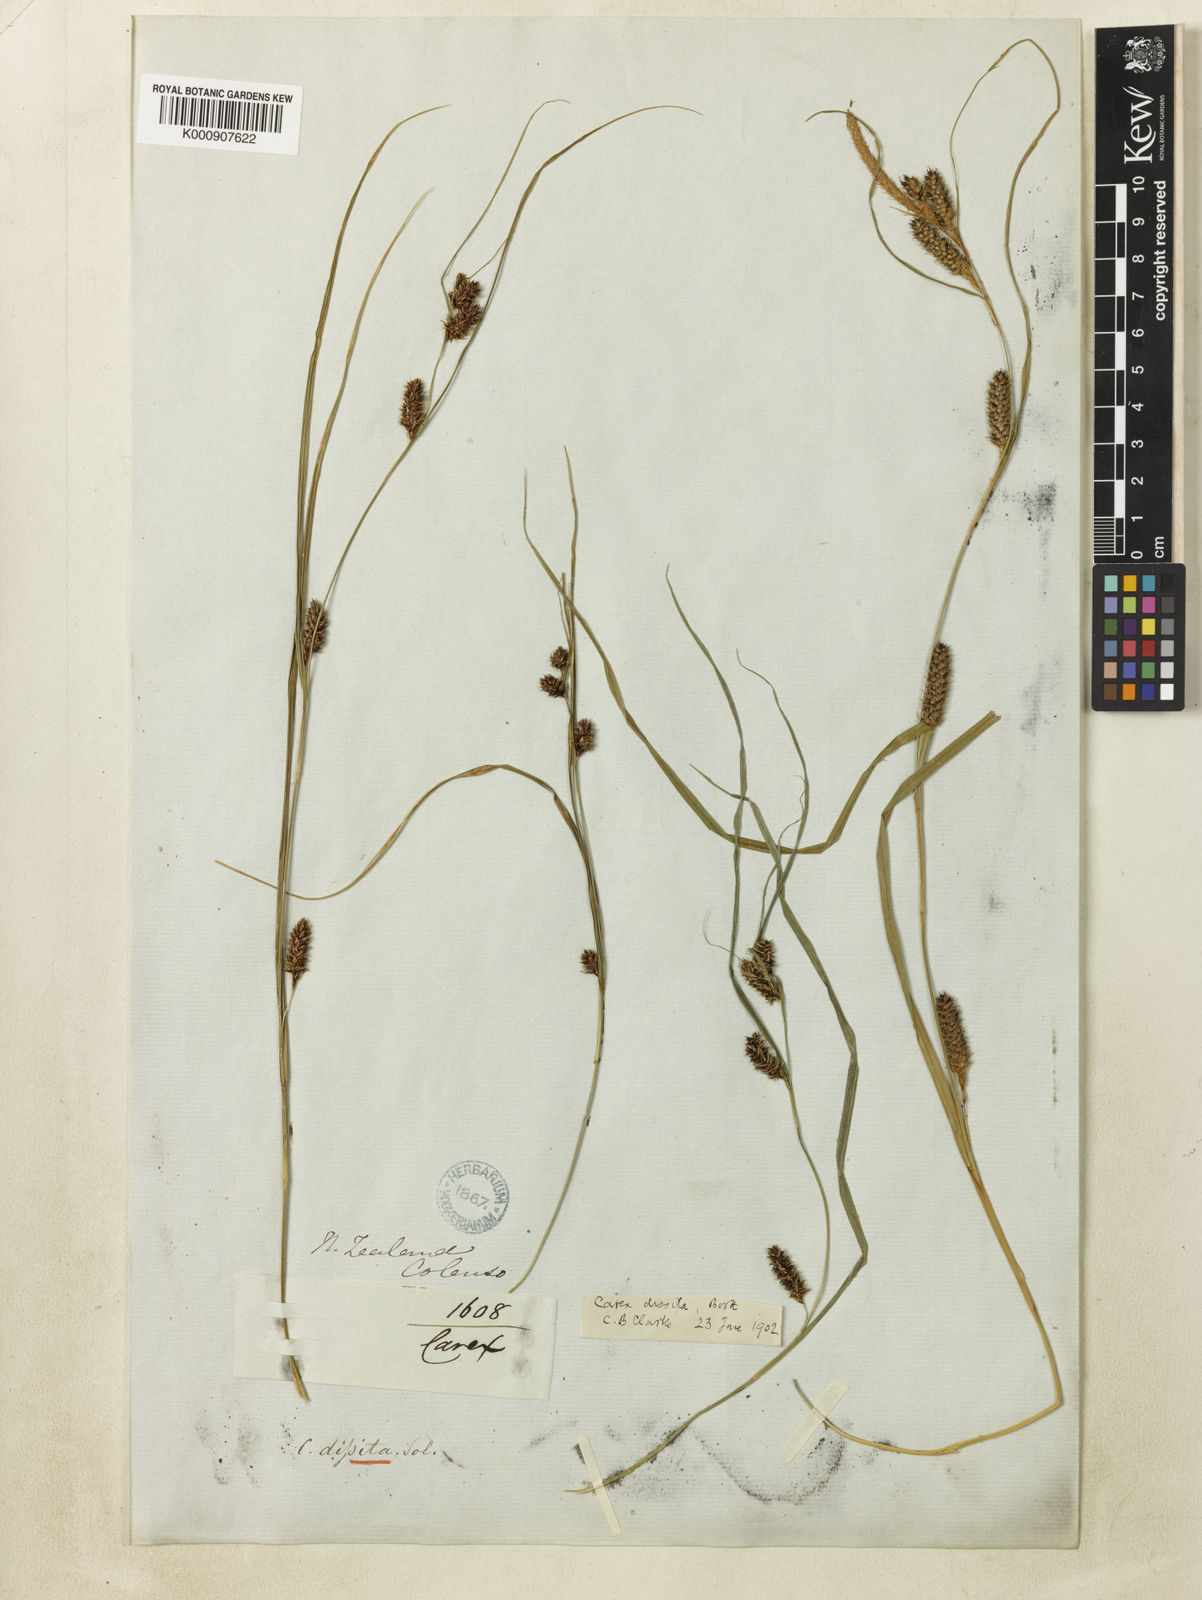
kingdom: Plantae
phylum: Tracheophyta
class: Liliopsida
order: Poales
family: Cyperaceae
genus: Carex
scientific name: Carex
